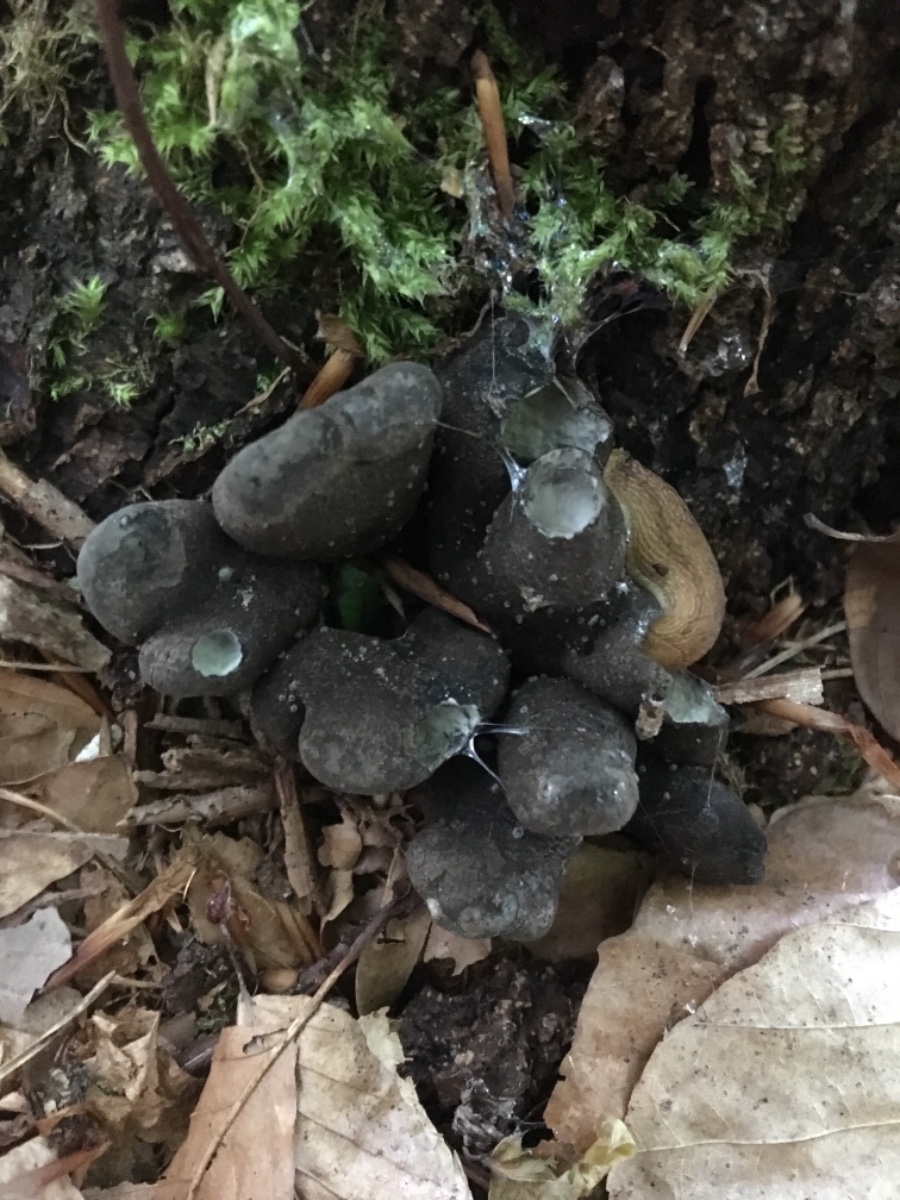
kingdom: Fungi
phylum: Ascomycota
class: Sordariomycetes
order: Xylariales
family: Xylariaceae
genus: Xylaria
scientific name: Xylaria polymorpha
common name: kølle-stødsvamp
